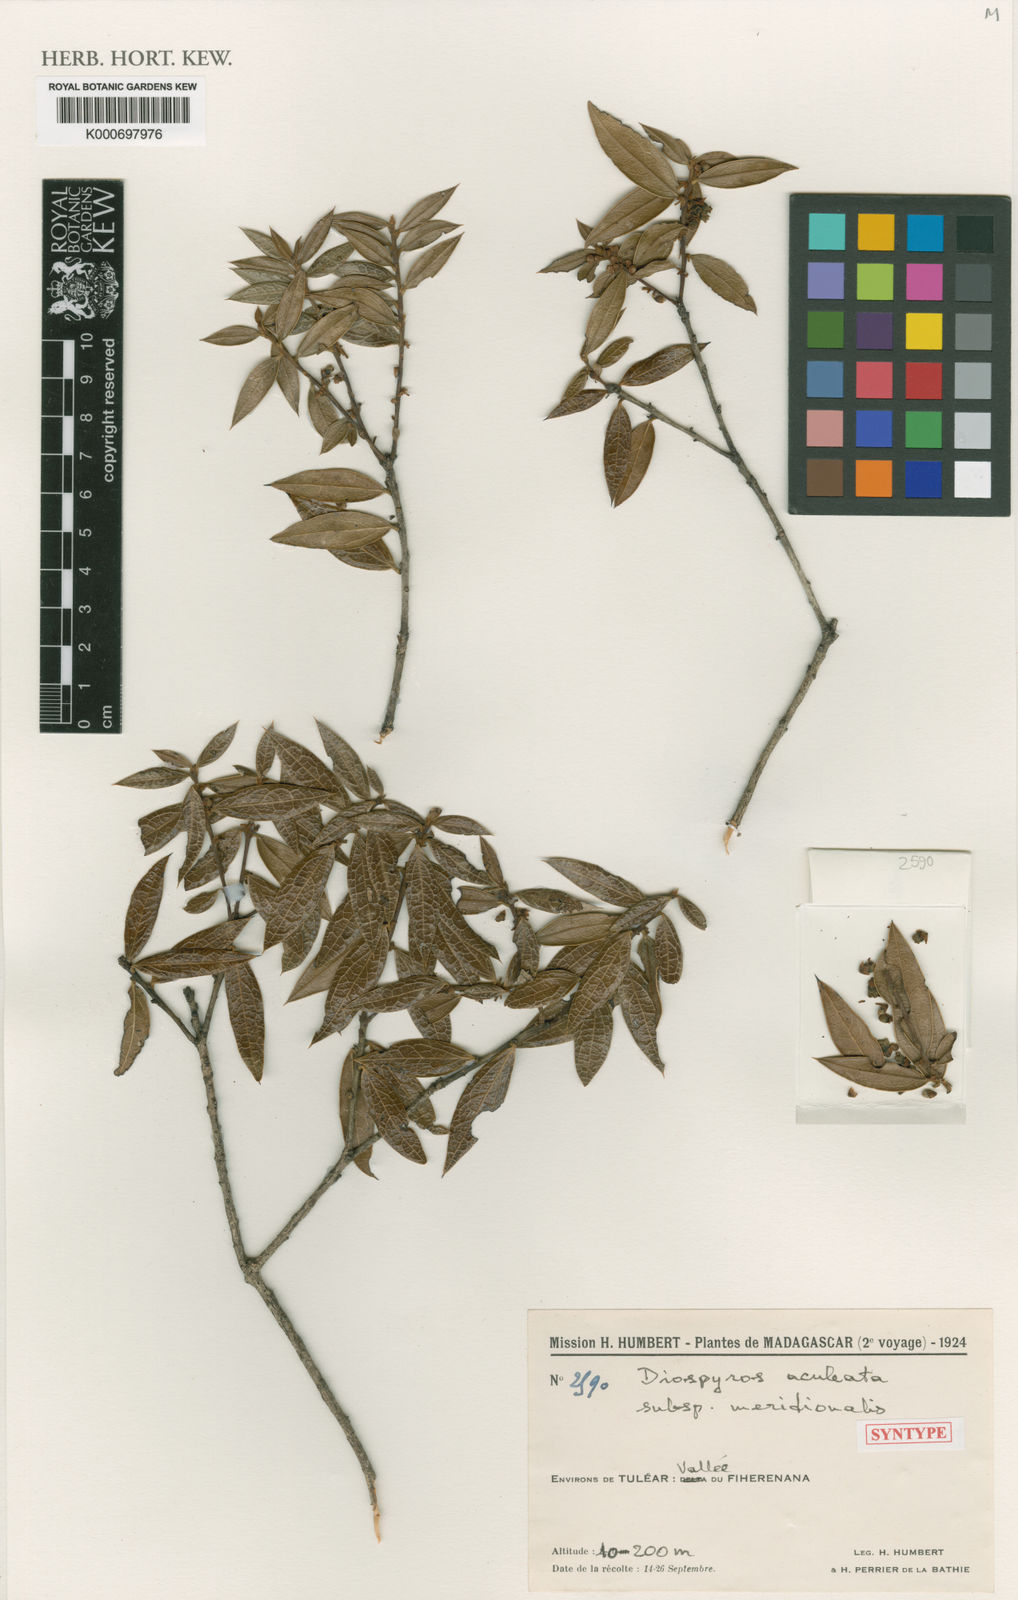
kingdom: Plantae
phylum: Tracheophyta
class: Magnoliopsida
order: Ericales
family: Ebenaceae
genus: Diospyros
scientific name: Diospyros aculeata
